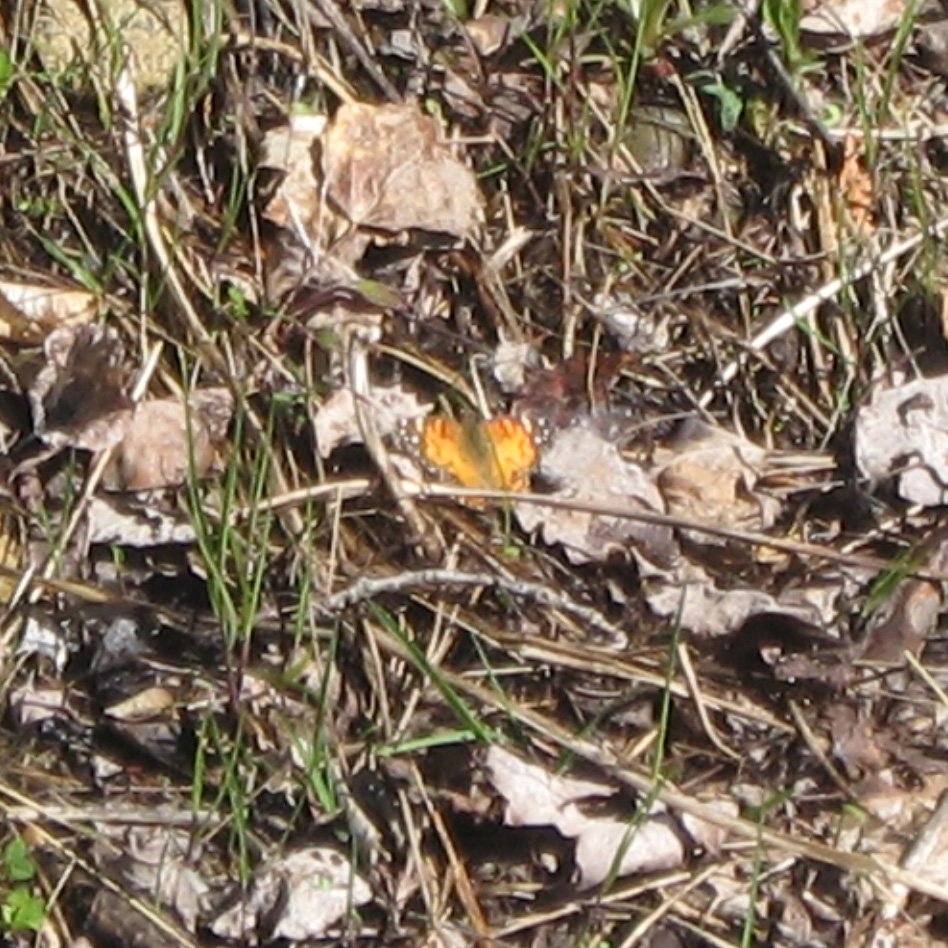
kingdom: Animalia
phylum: Arthropoda
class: Insecta
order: Lepidoptera
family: Nymphalidae
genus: Vanessa
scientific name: Vanessa virginiensis
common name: American Lady
